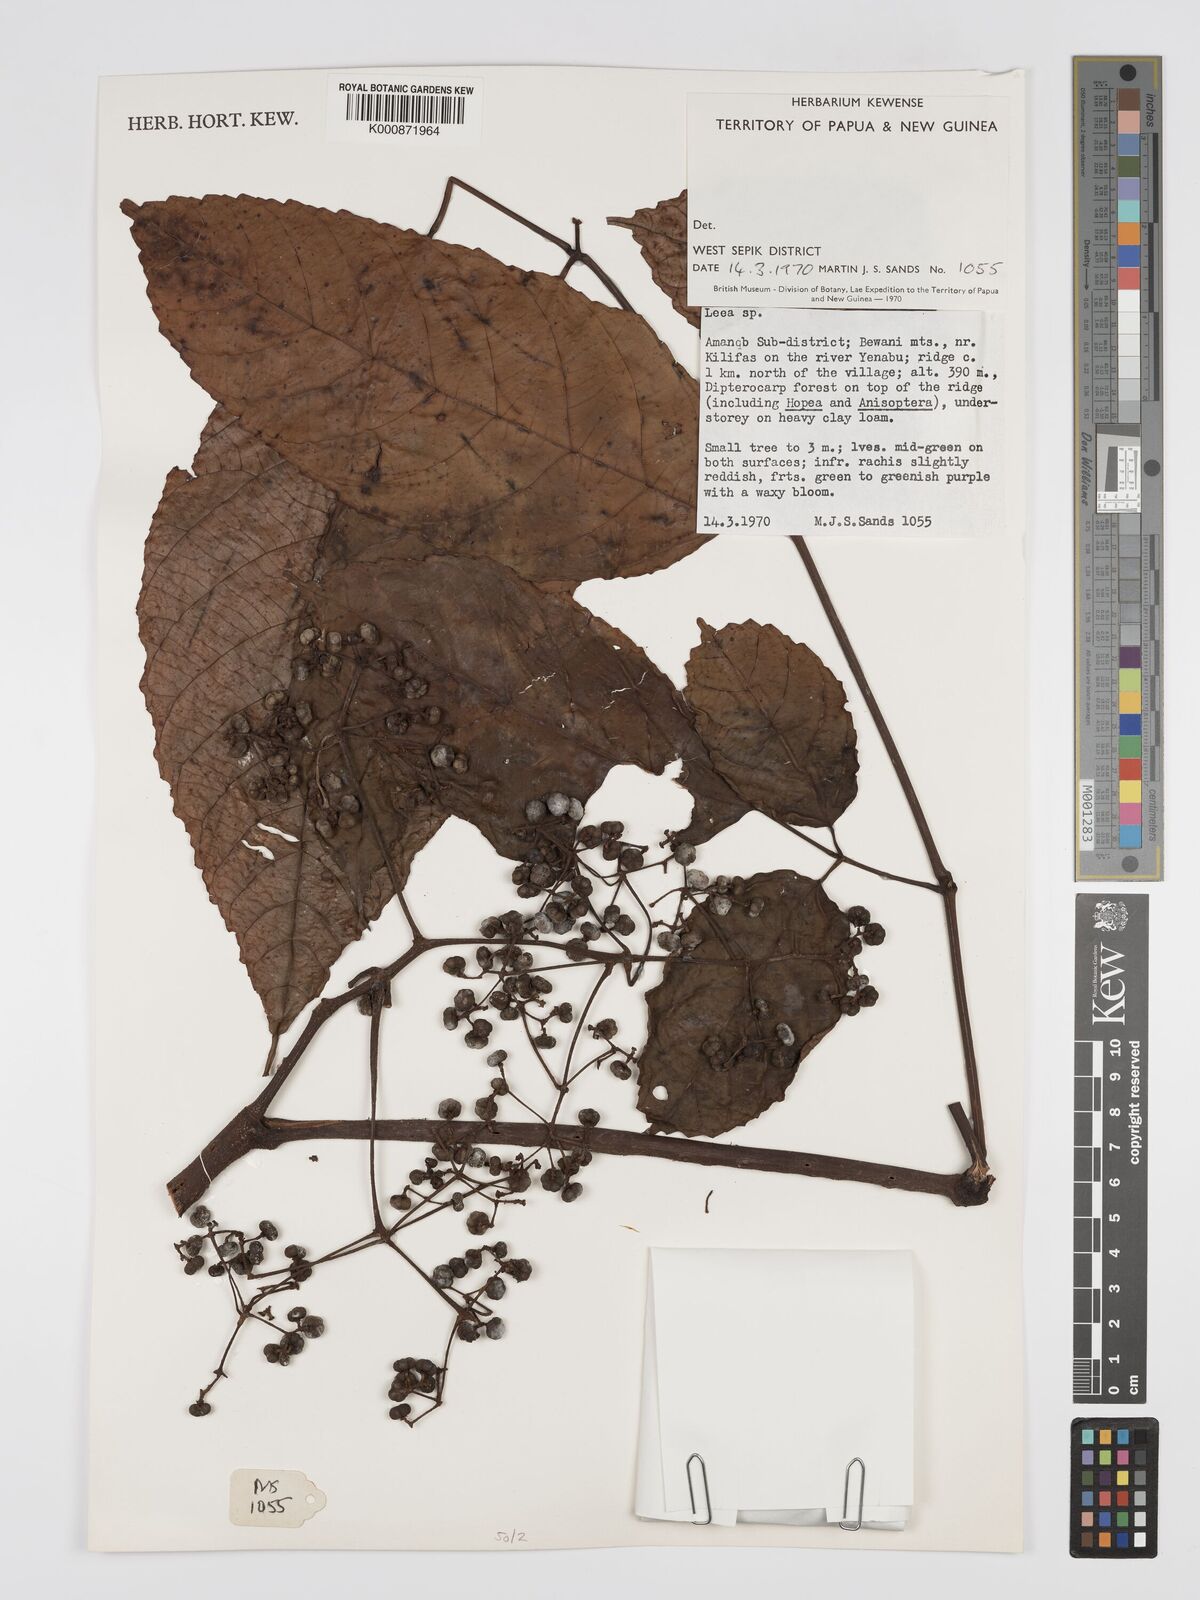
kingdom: Plantae
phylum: Tracheophyta
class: Magnoliopsida
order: Vitales
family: Vitaceae
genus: Leea
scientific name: Leea
